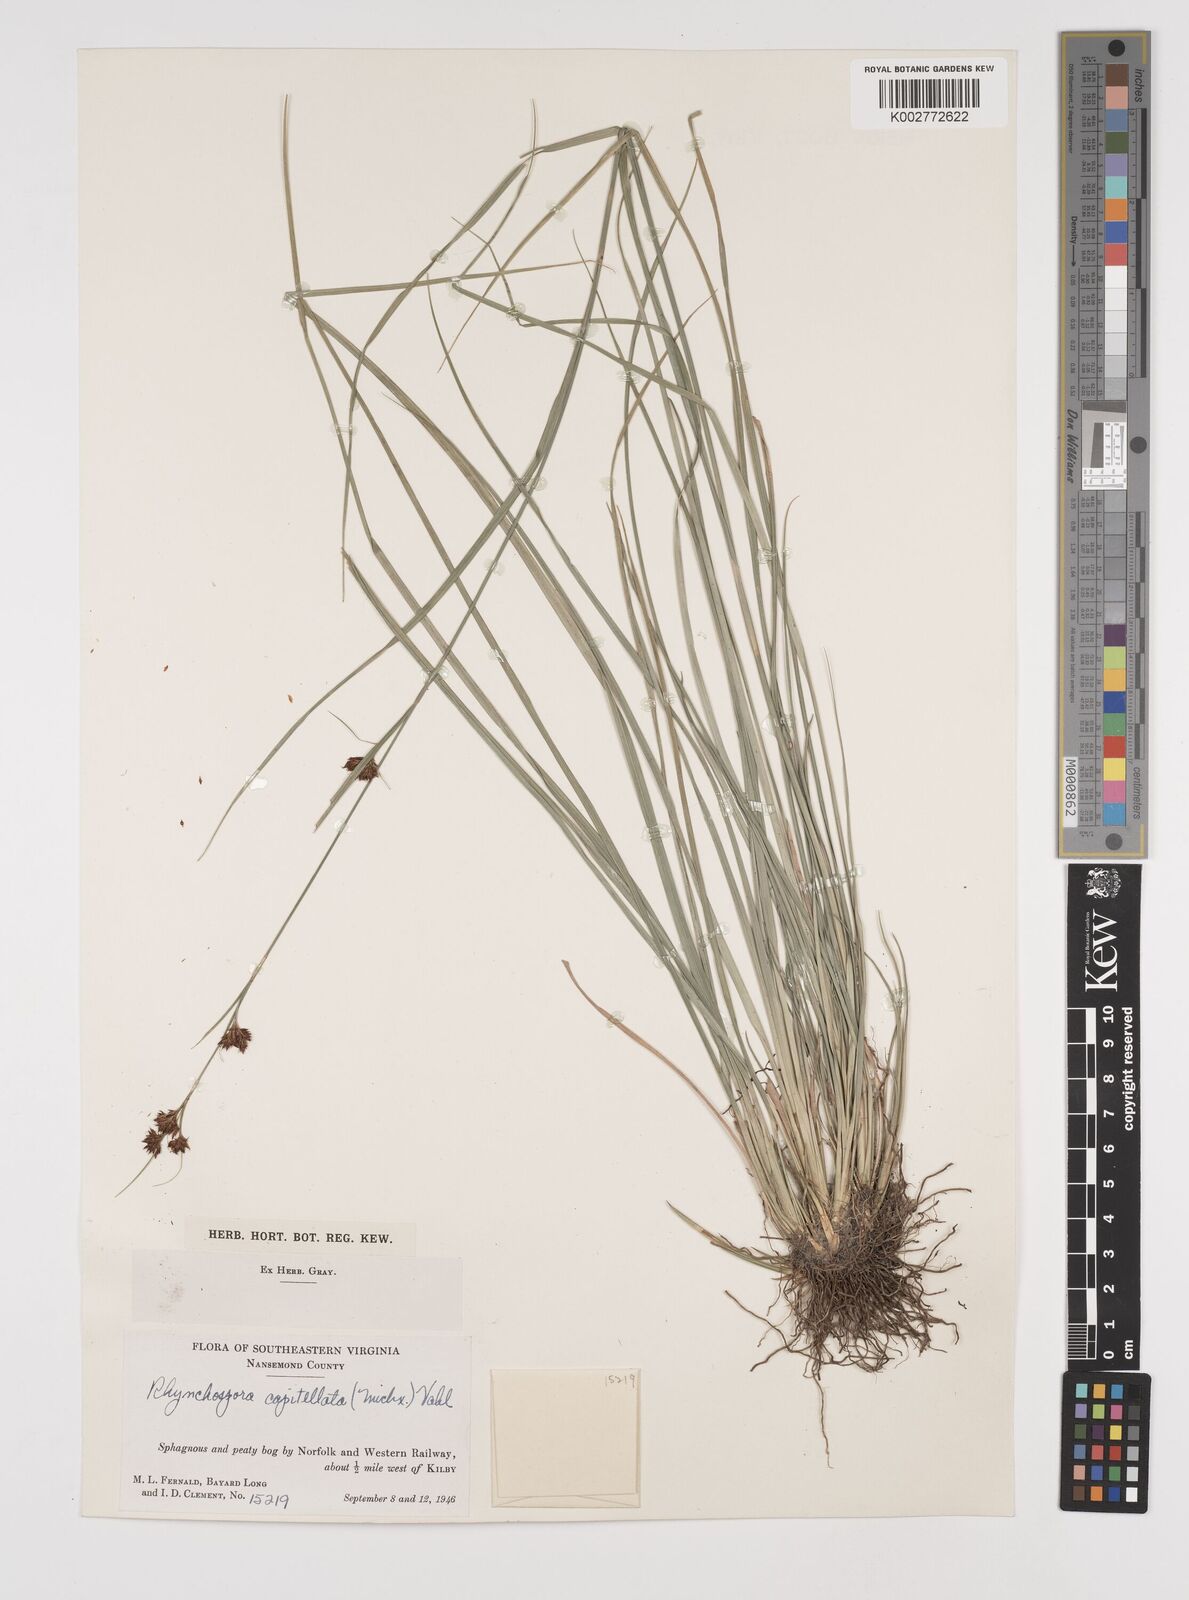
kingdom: Plantae
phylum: Tracheophyta
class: Liliopsida
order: Poales
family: Cyperaceae
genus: Rhynchospora
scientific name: Rhynchospora capitellata
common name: Brownish beaksedge
